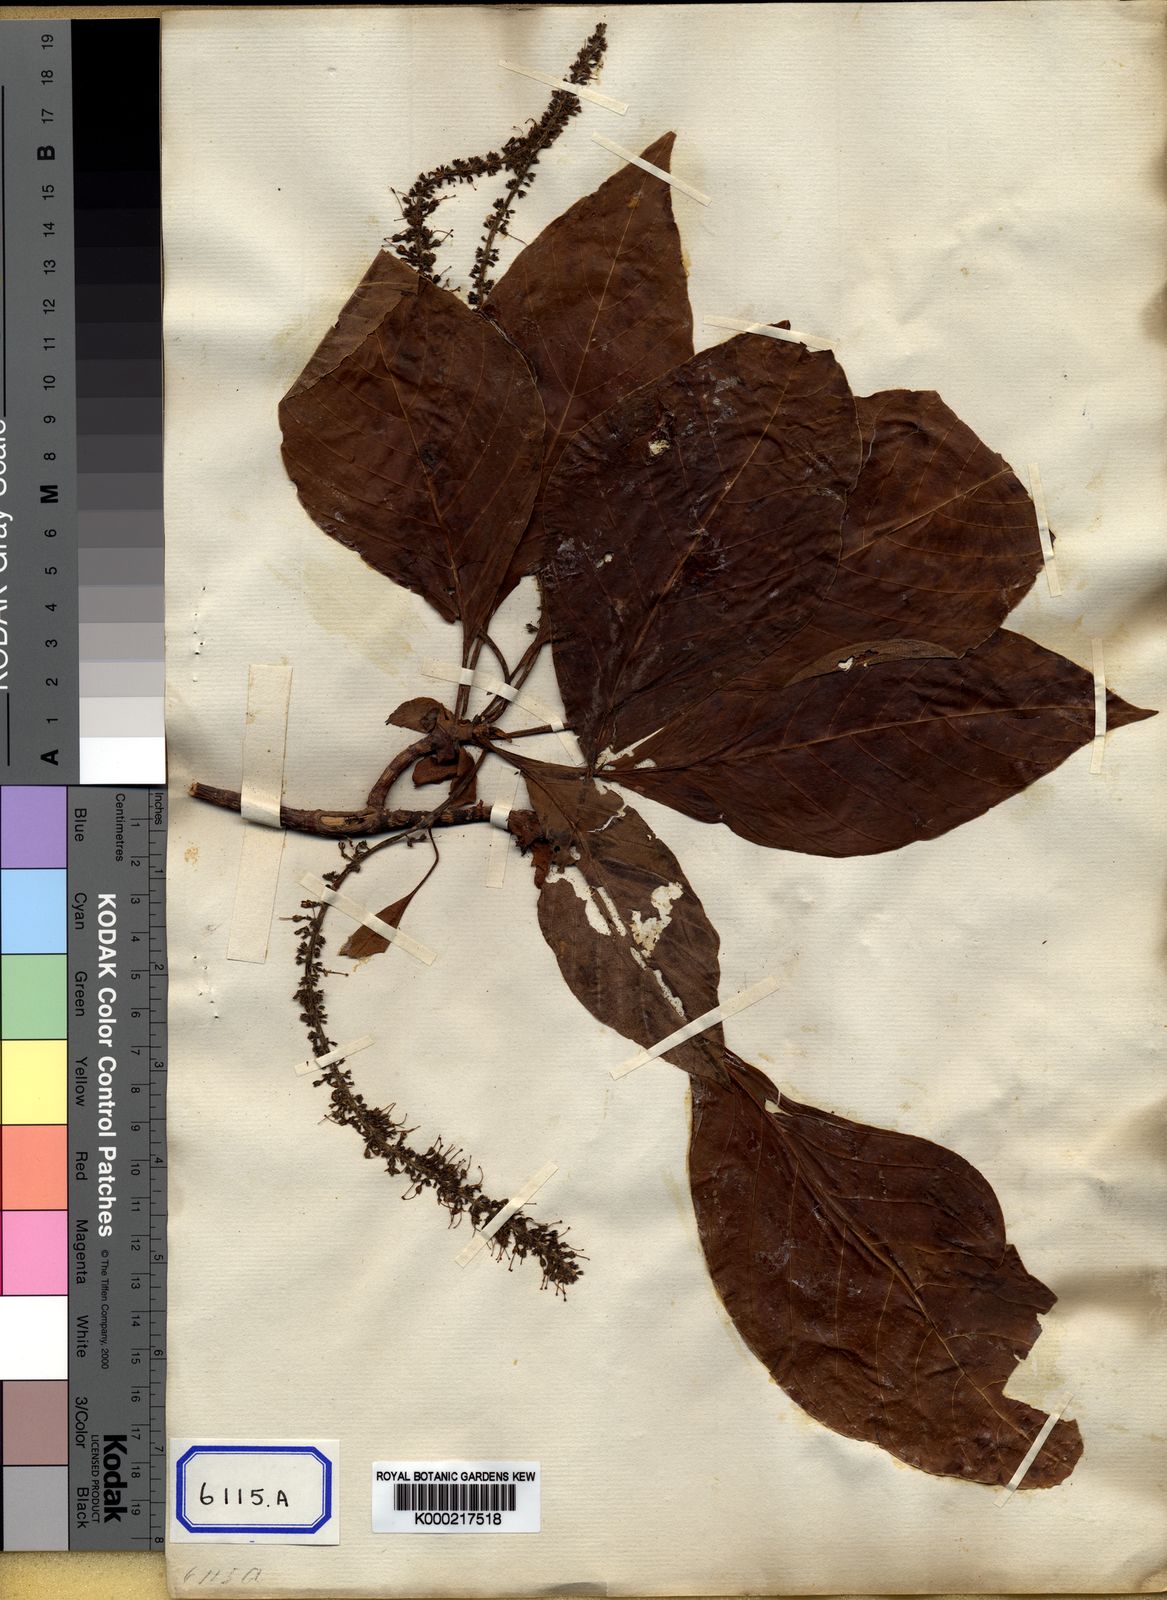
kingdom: Plantae
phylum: Tracheophyta
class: Magnoliopsida
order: Gentianales
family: Rubiaceae
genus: Hymenodictyon
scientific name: Hymenodictyon flaccidum
